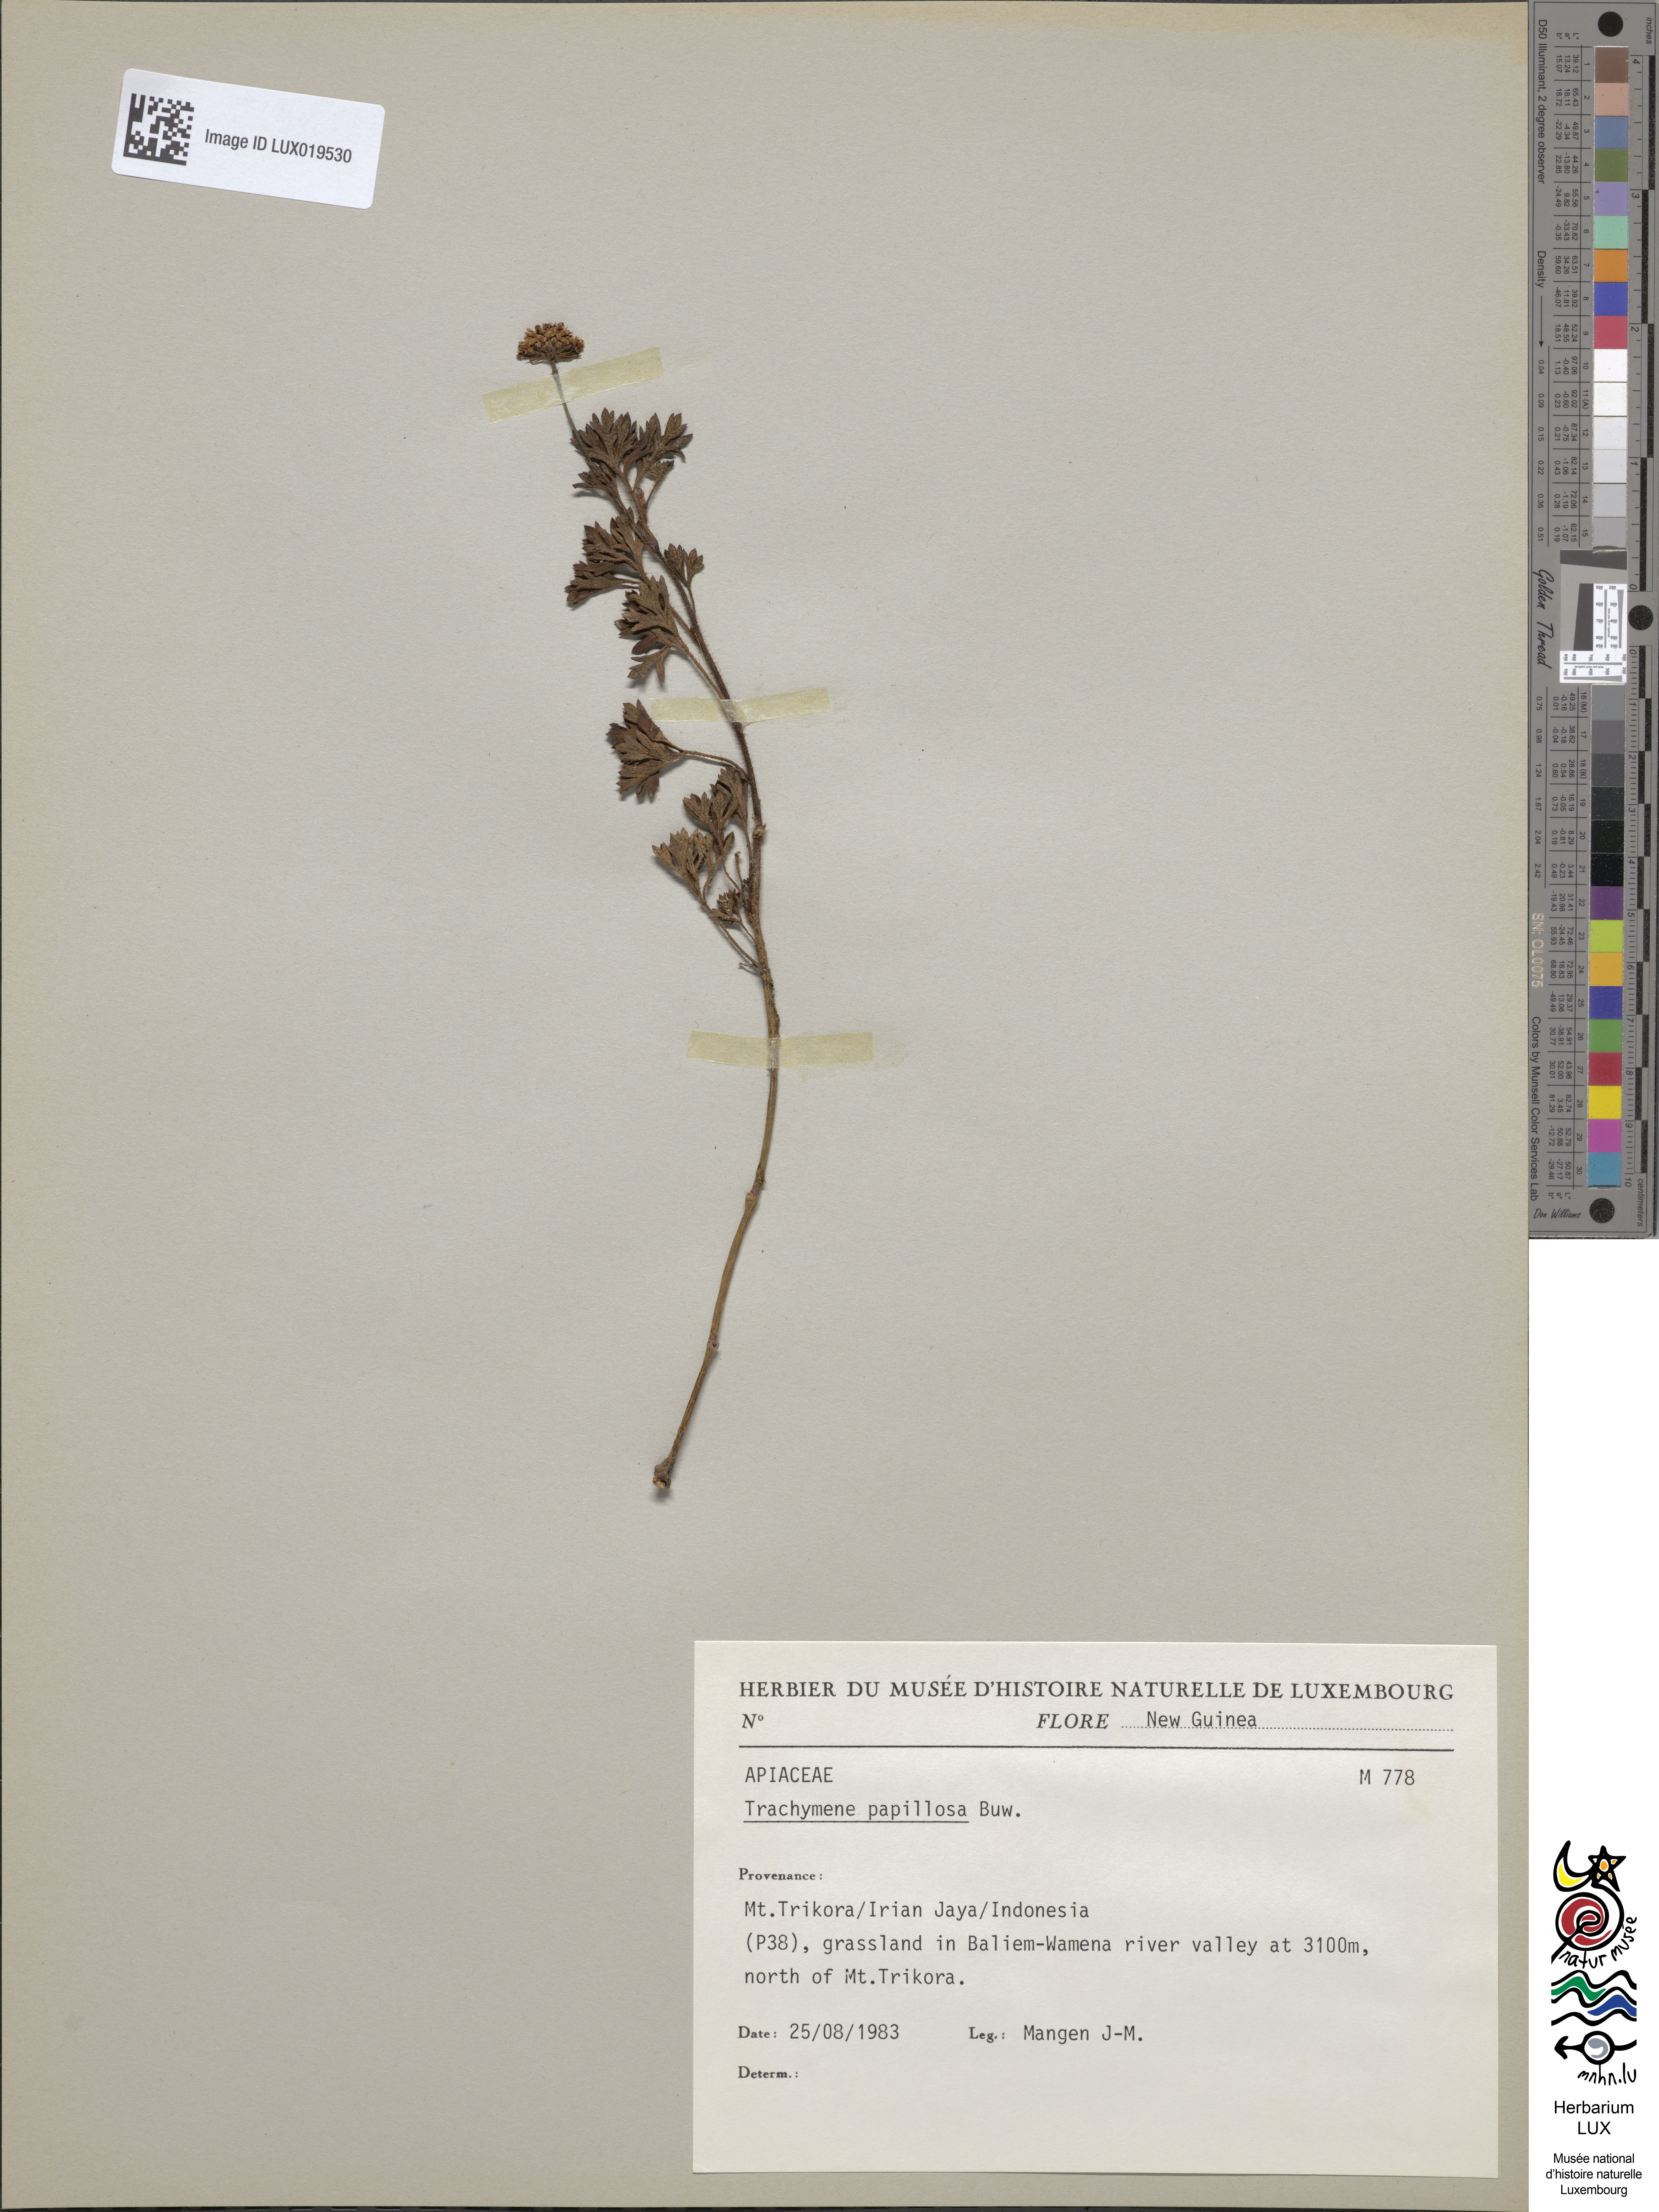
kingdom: Plantae
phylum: Tracheophyta
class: Magnoliopsida
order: Apiales
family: Araliaceae
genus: Trachymene
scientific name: Trachymene papillosa
